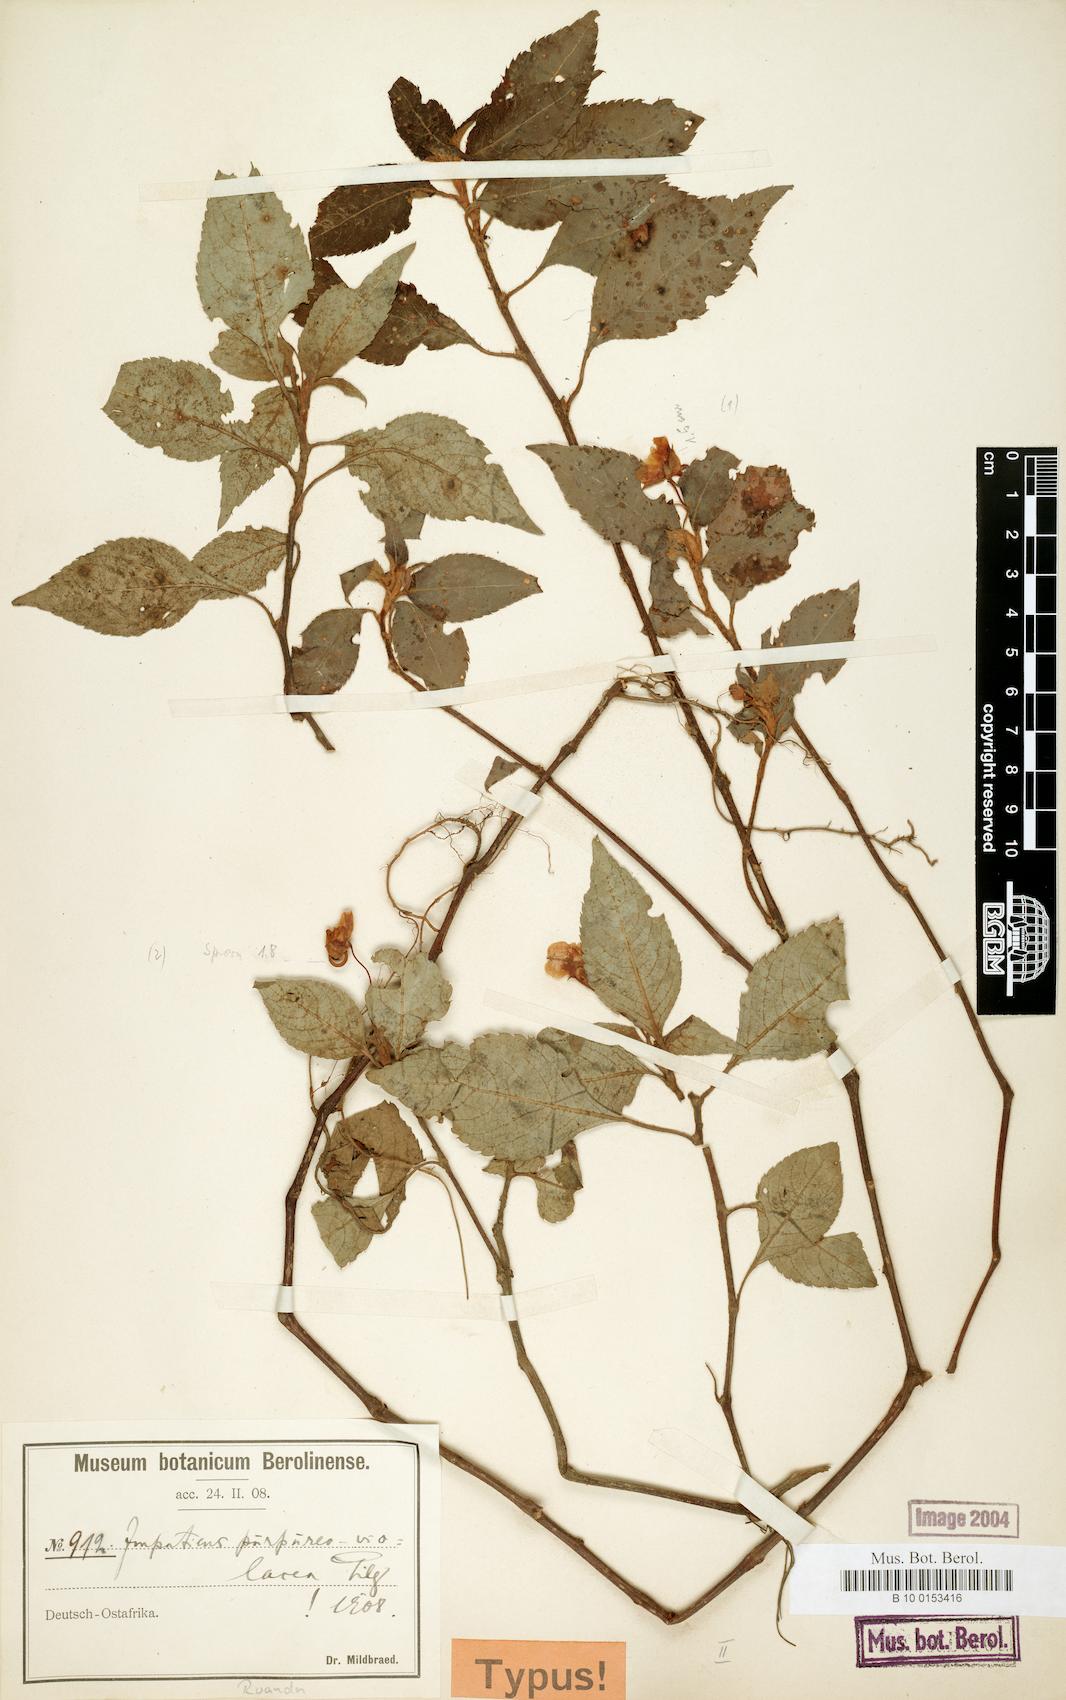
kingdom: Plantae
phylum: Tracheophyta
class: Magnoliopsida
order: Ericales
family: Balsaminaceae
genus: Impatiens
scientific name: Impatiens purpureoviolacea
